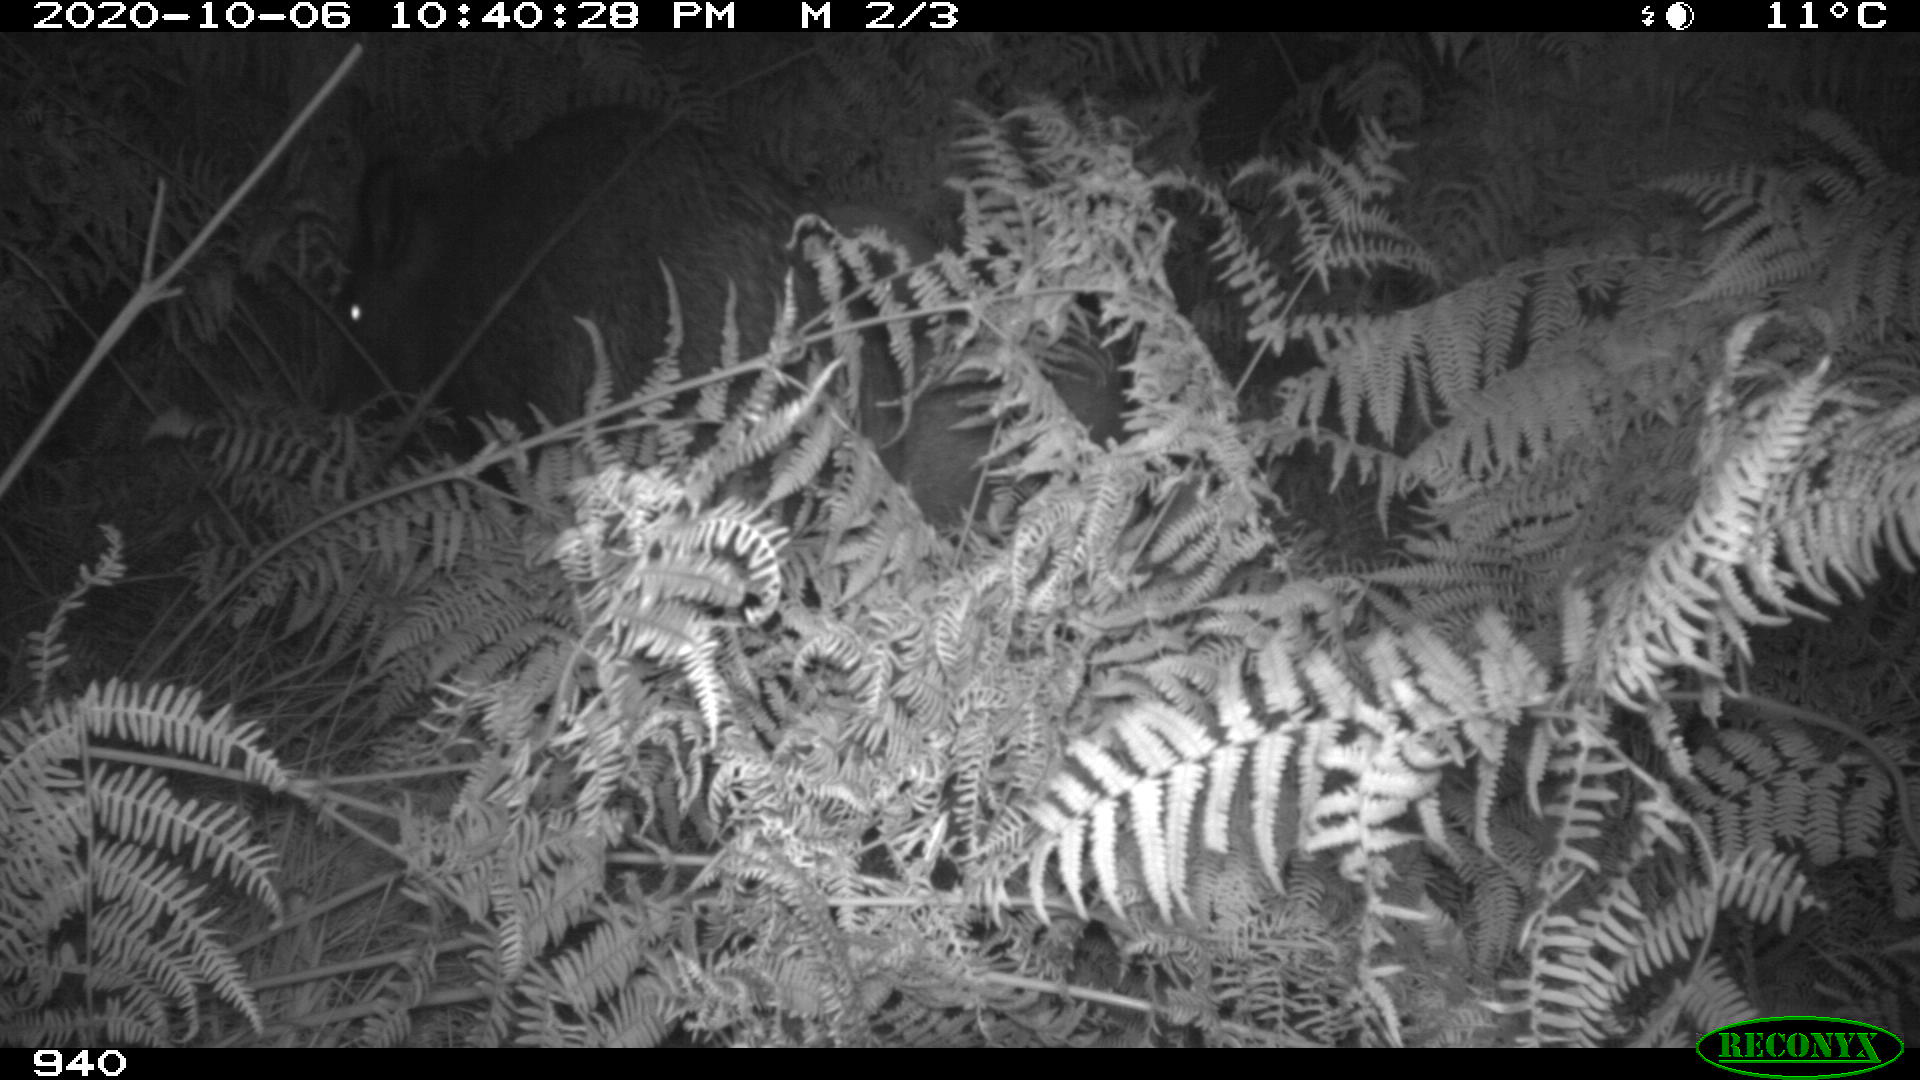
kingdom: Animalia
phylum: Chordata
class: Mammalia
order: Artiodactyla
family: Suidae
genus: Sus
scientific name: Sus scrofa
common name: Wild boar
